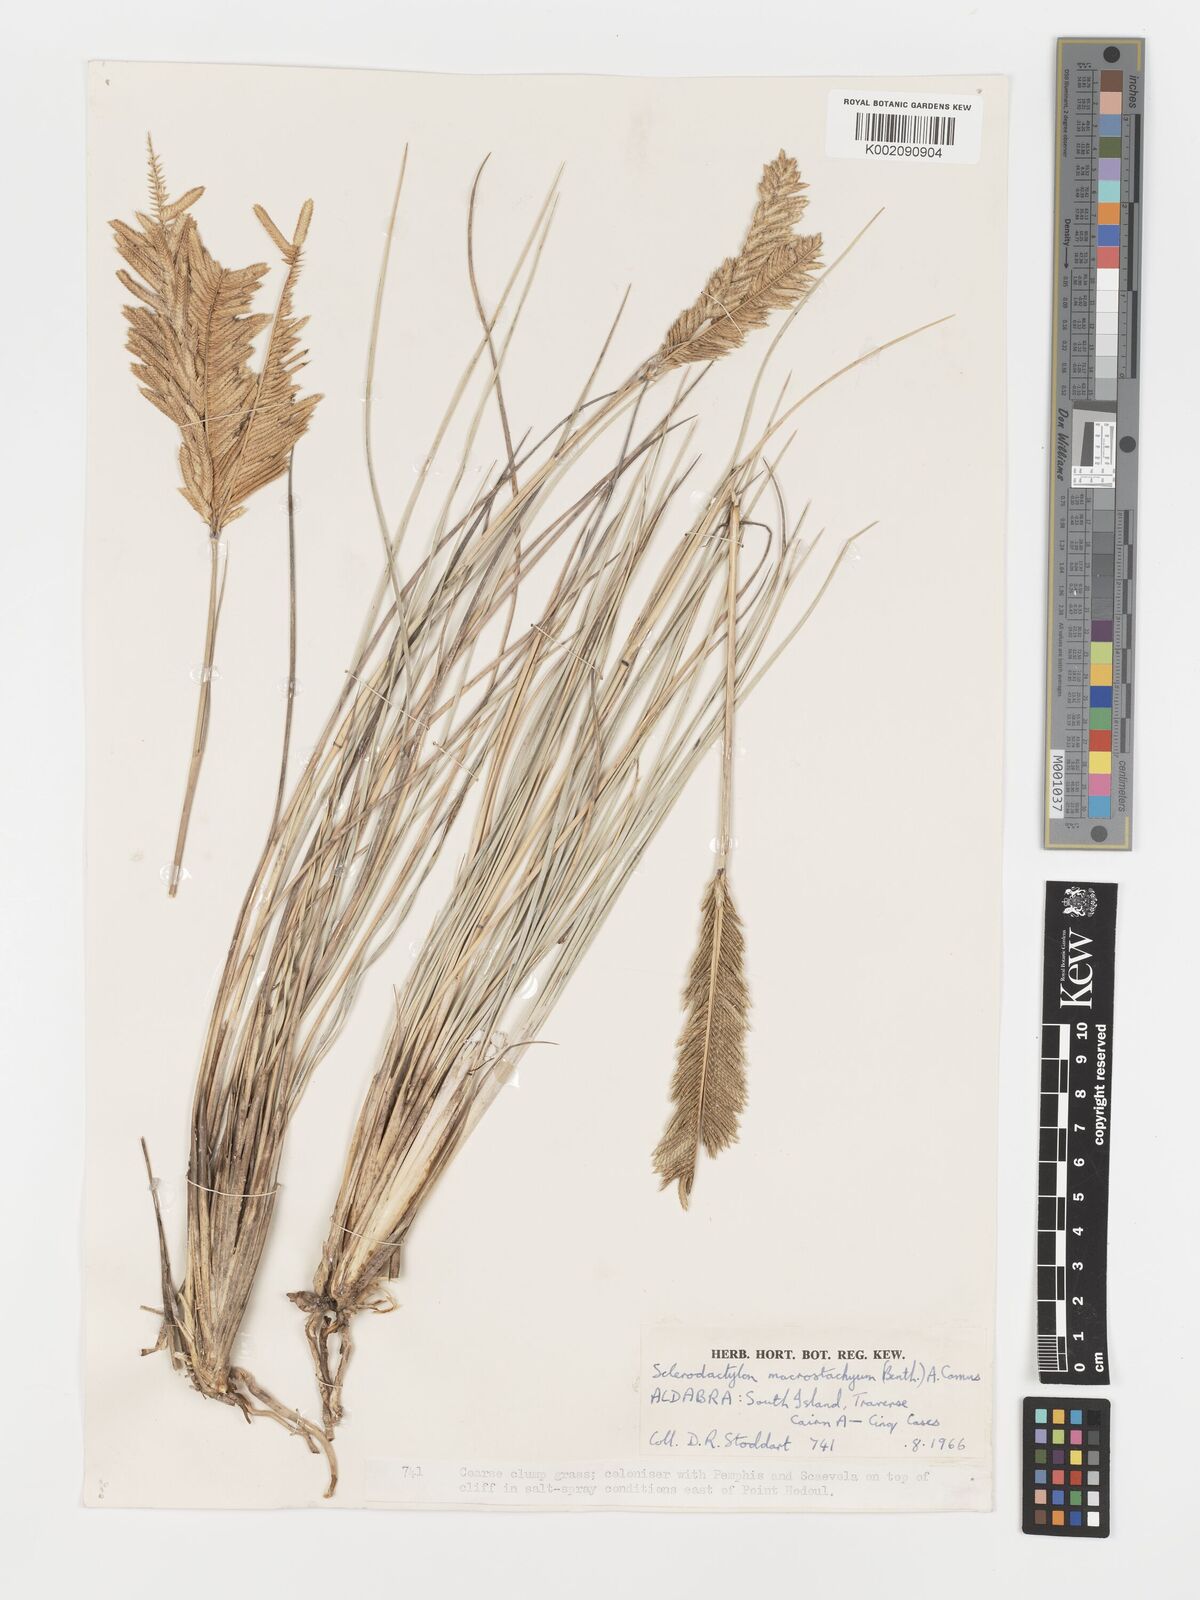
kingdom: Plantae
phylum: Tracheophyta
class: Liliopsida
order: Poales
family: Poaceae
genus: Sclerodactylon
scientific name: Sclerodactylon macrostachyum
